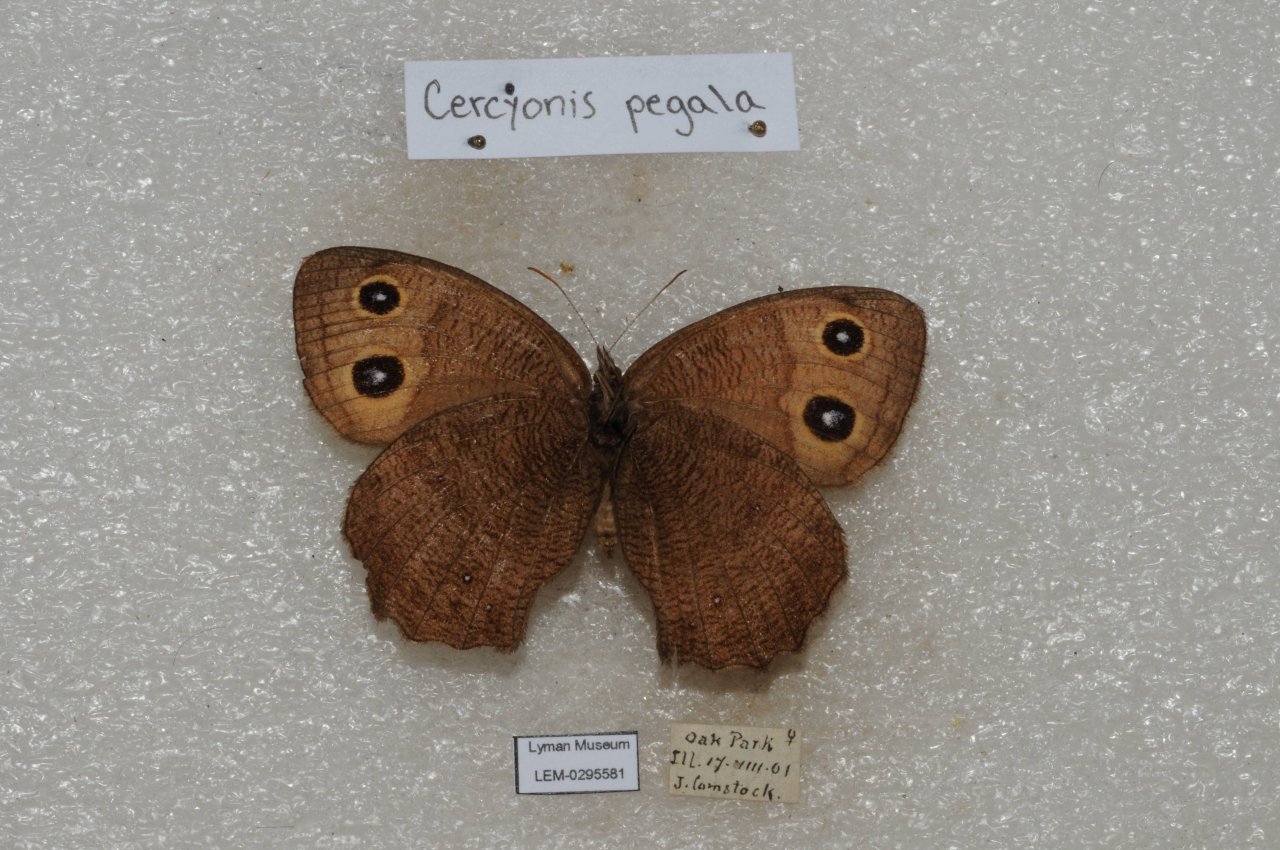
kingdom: Animalia
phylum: Arthropoda
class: Insecta
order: Lepidoptera
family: Nymphalidae
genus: Cercyonis
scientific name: Cercyonis pegala
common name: Common Wood-Nymph
